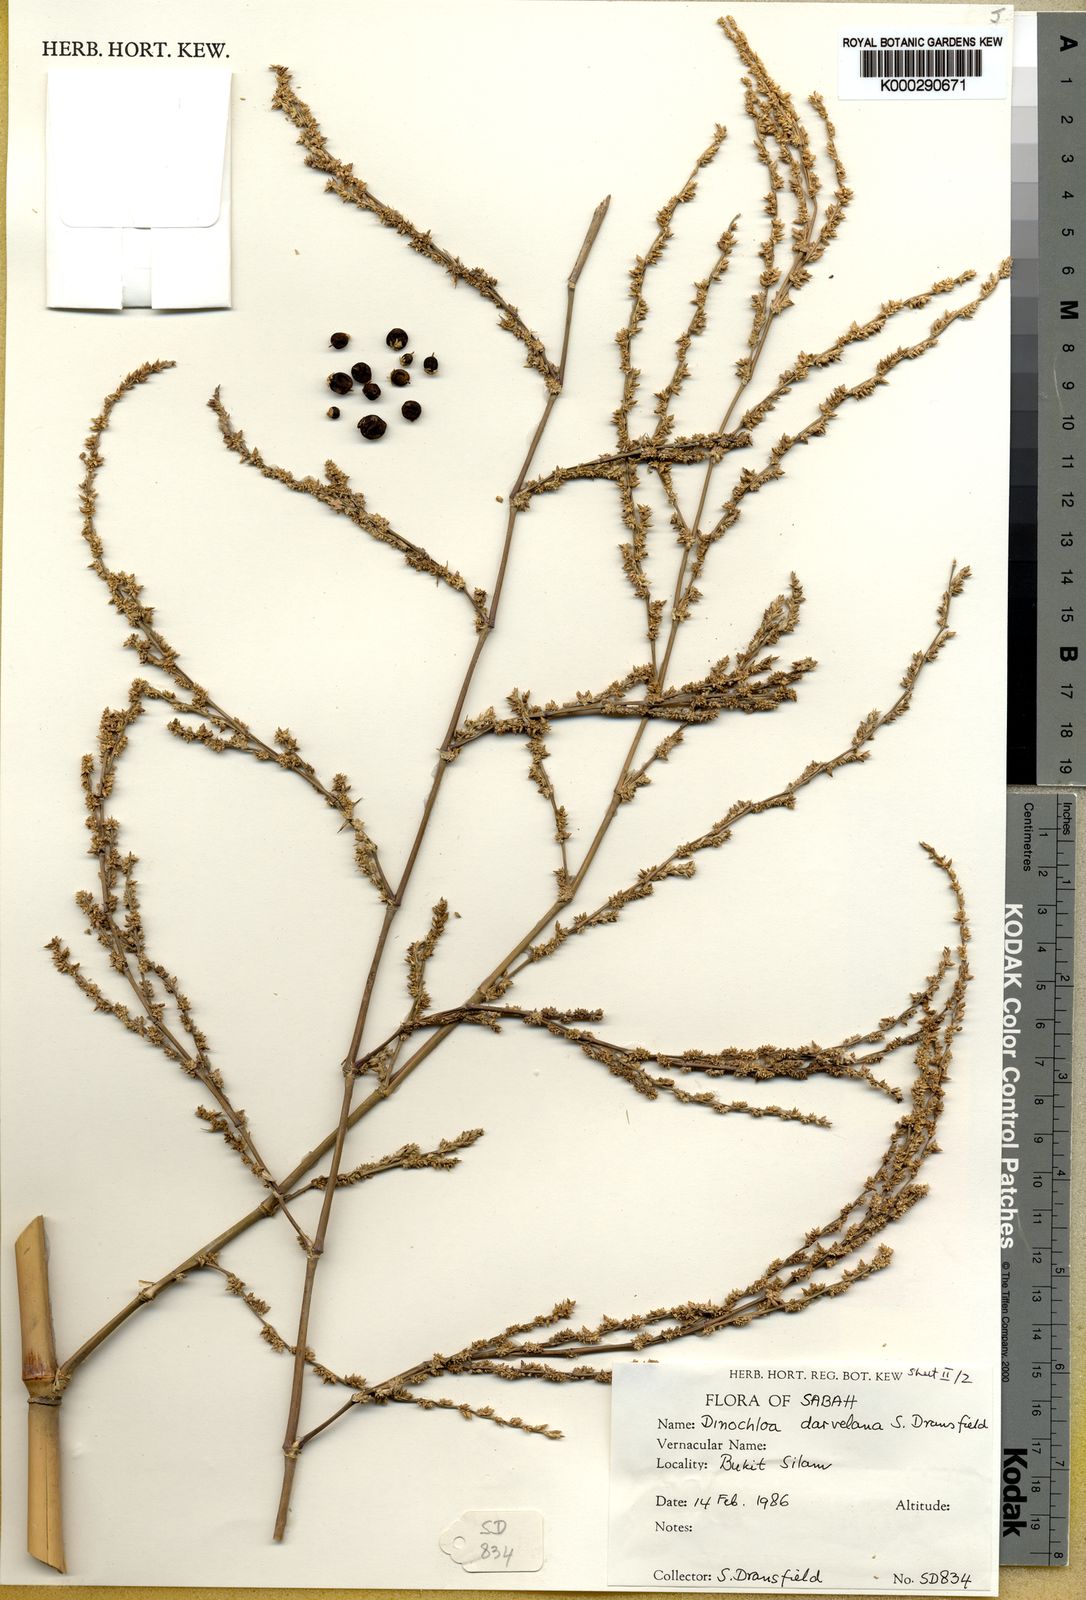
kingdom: Plantae
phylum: Tracheophyta
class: Liliopsida
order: Poales
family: Poaceae
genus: Dinochloa
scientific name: Dinochloa darvelana
